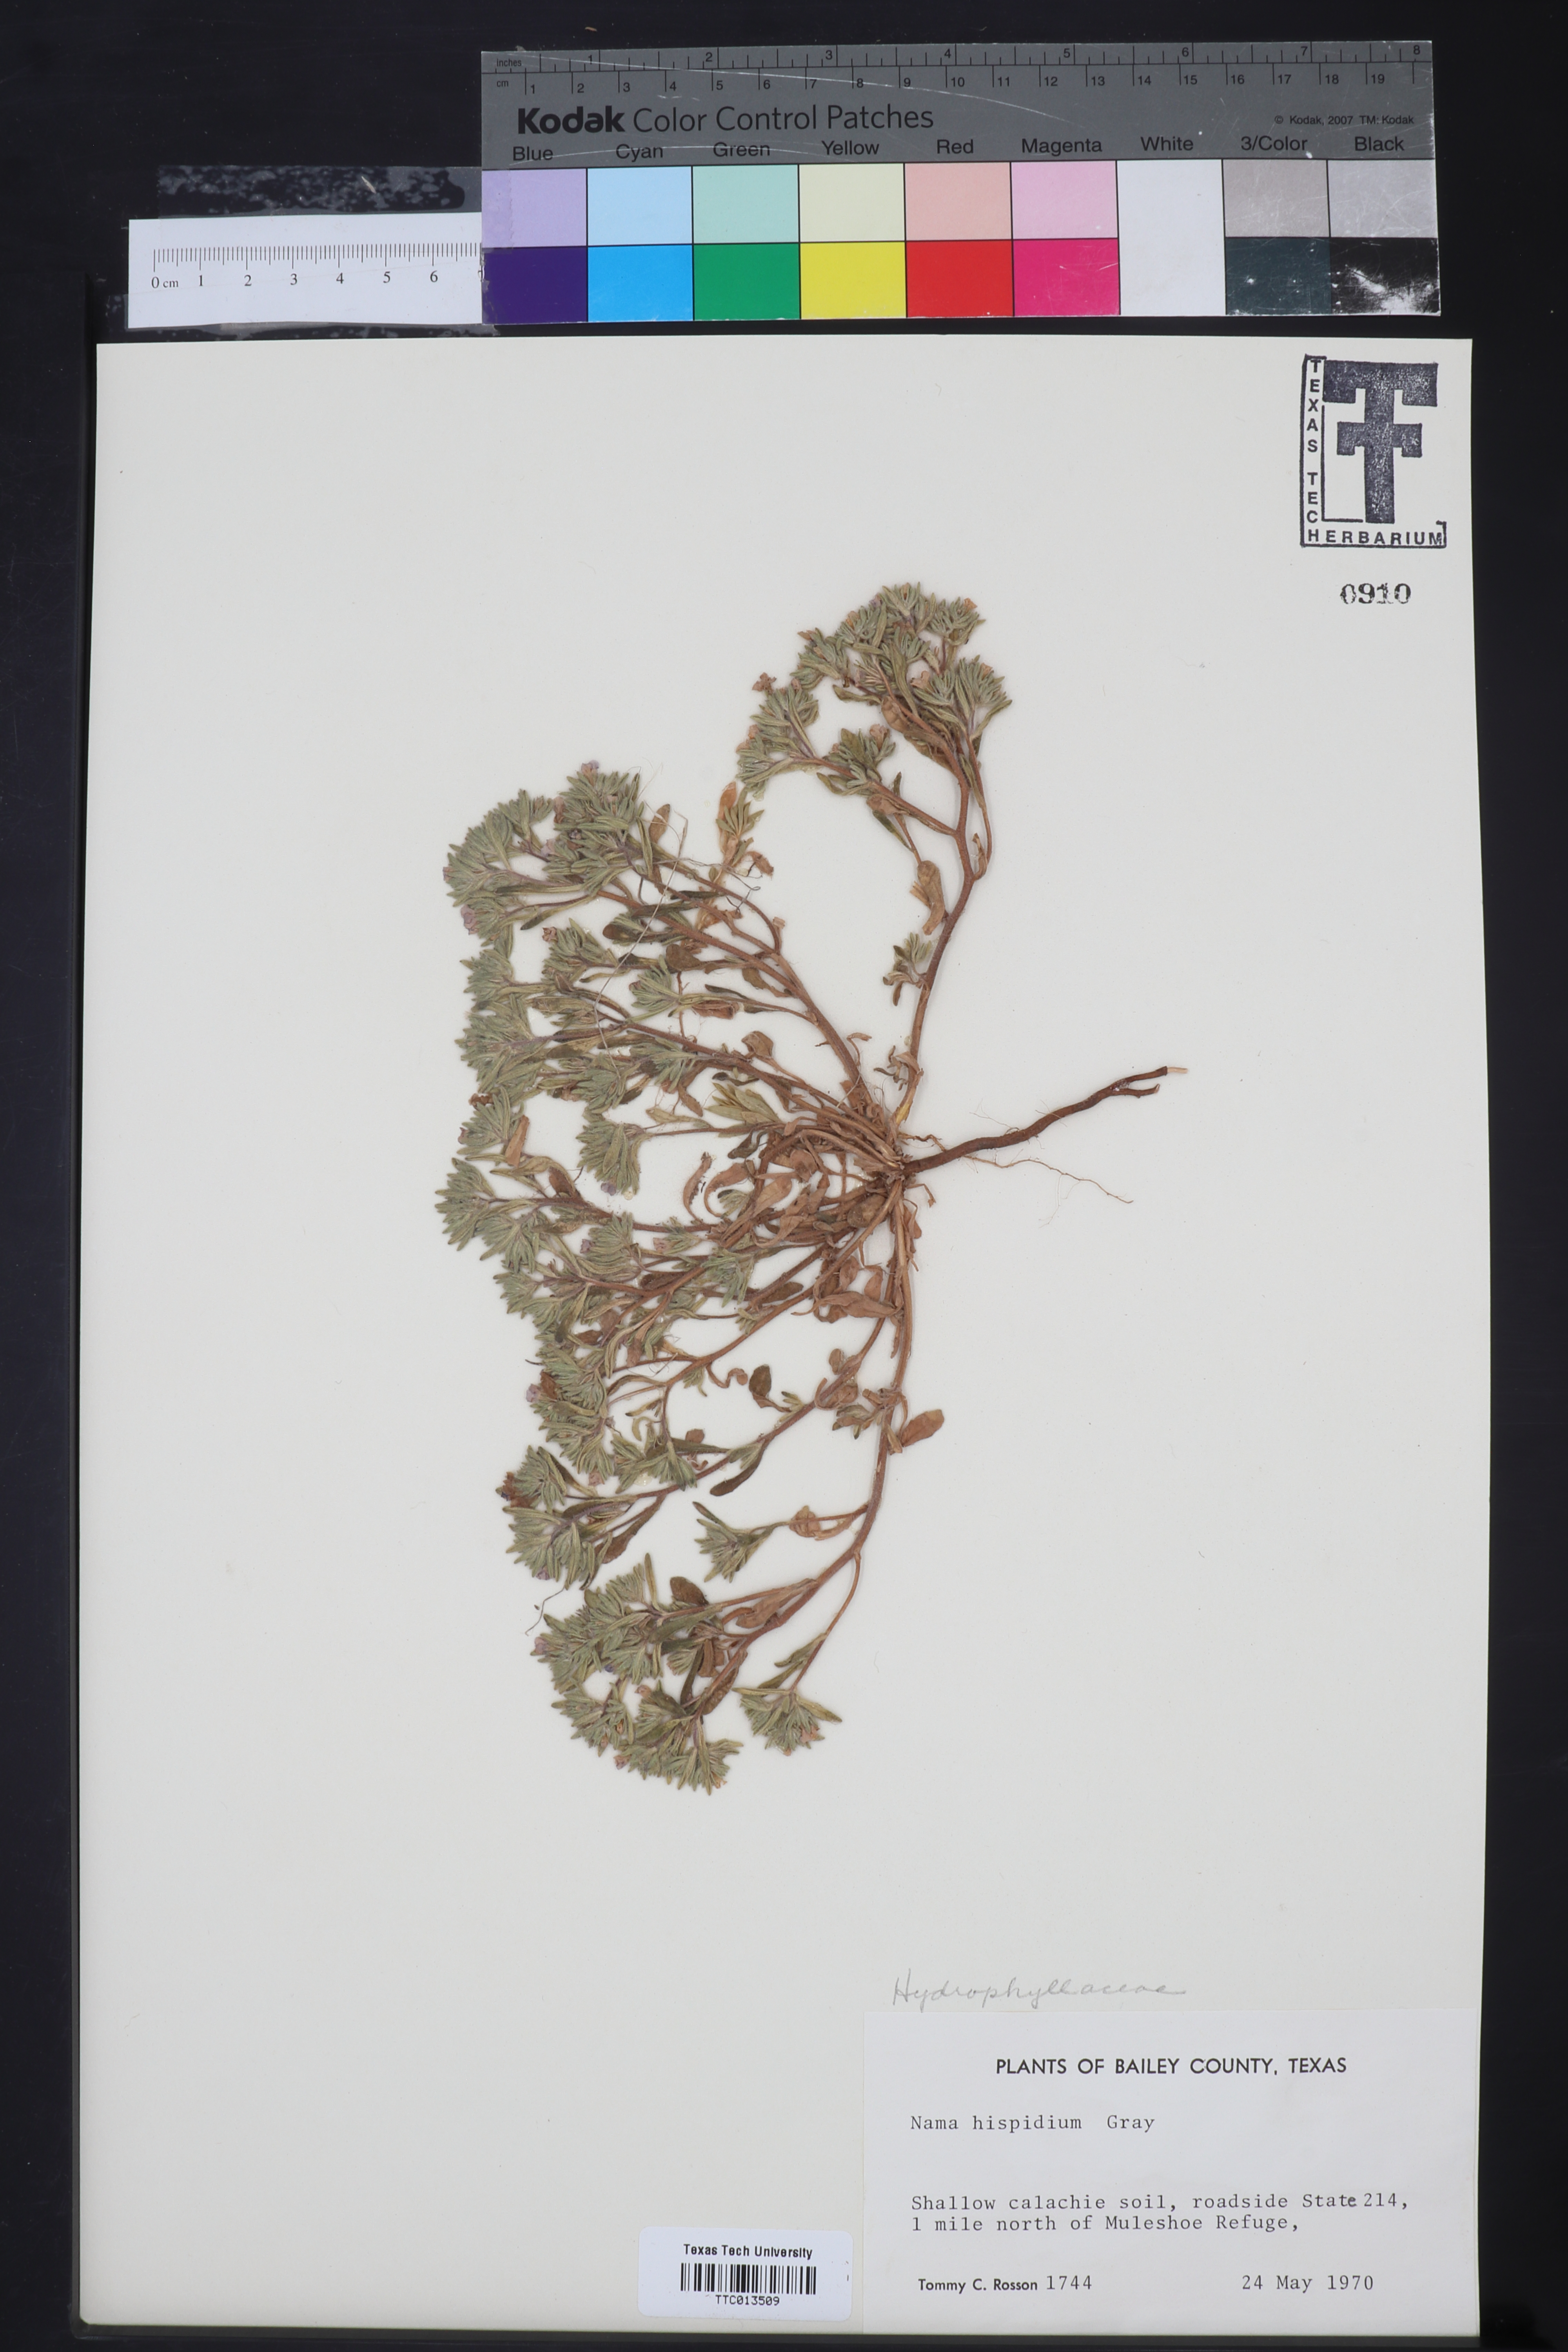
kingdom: Plantae
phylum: Tracheophyta
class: Magnoliopsida
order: Boraginales
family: Namaceae
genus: Nama
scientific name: Nama hispida
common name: Bristly nama
